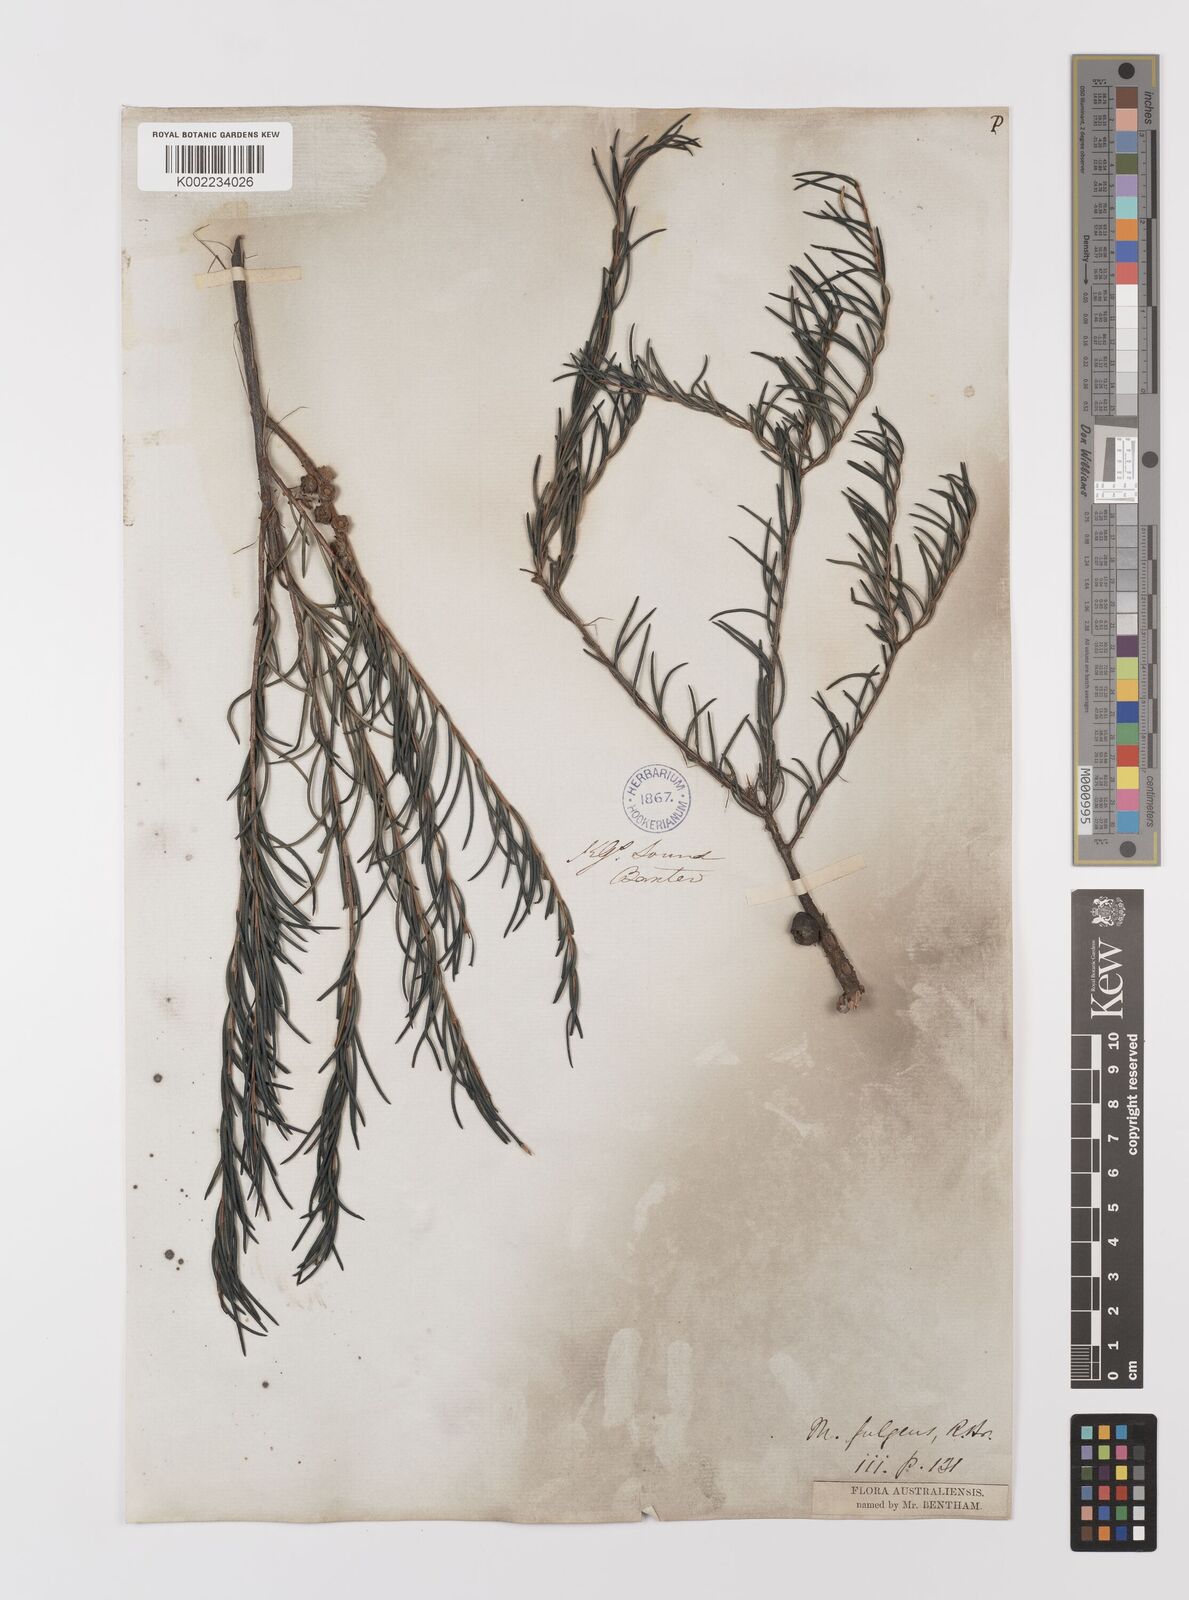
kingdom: Plantae
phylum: Tracheophyta
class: Magnoliopsida
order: Myrtales
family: Myrtaceae
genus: Melaleuca
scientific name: Melaleuca fulgens
